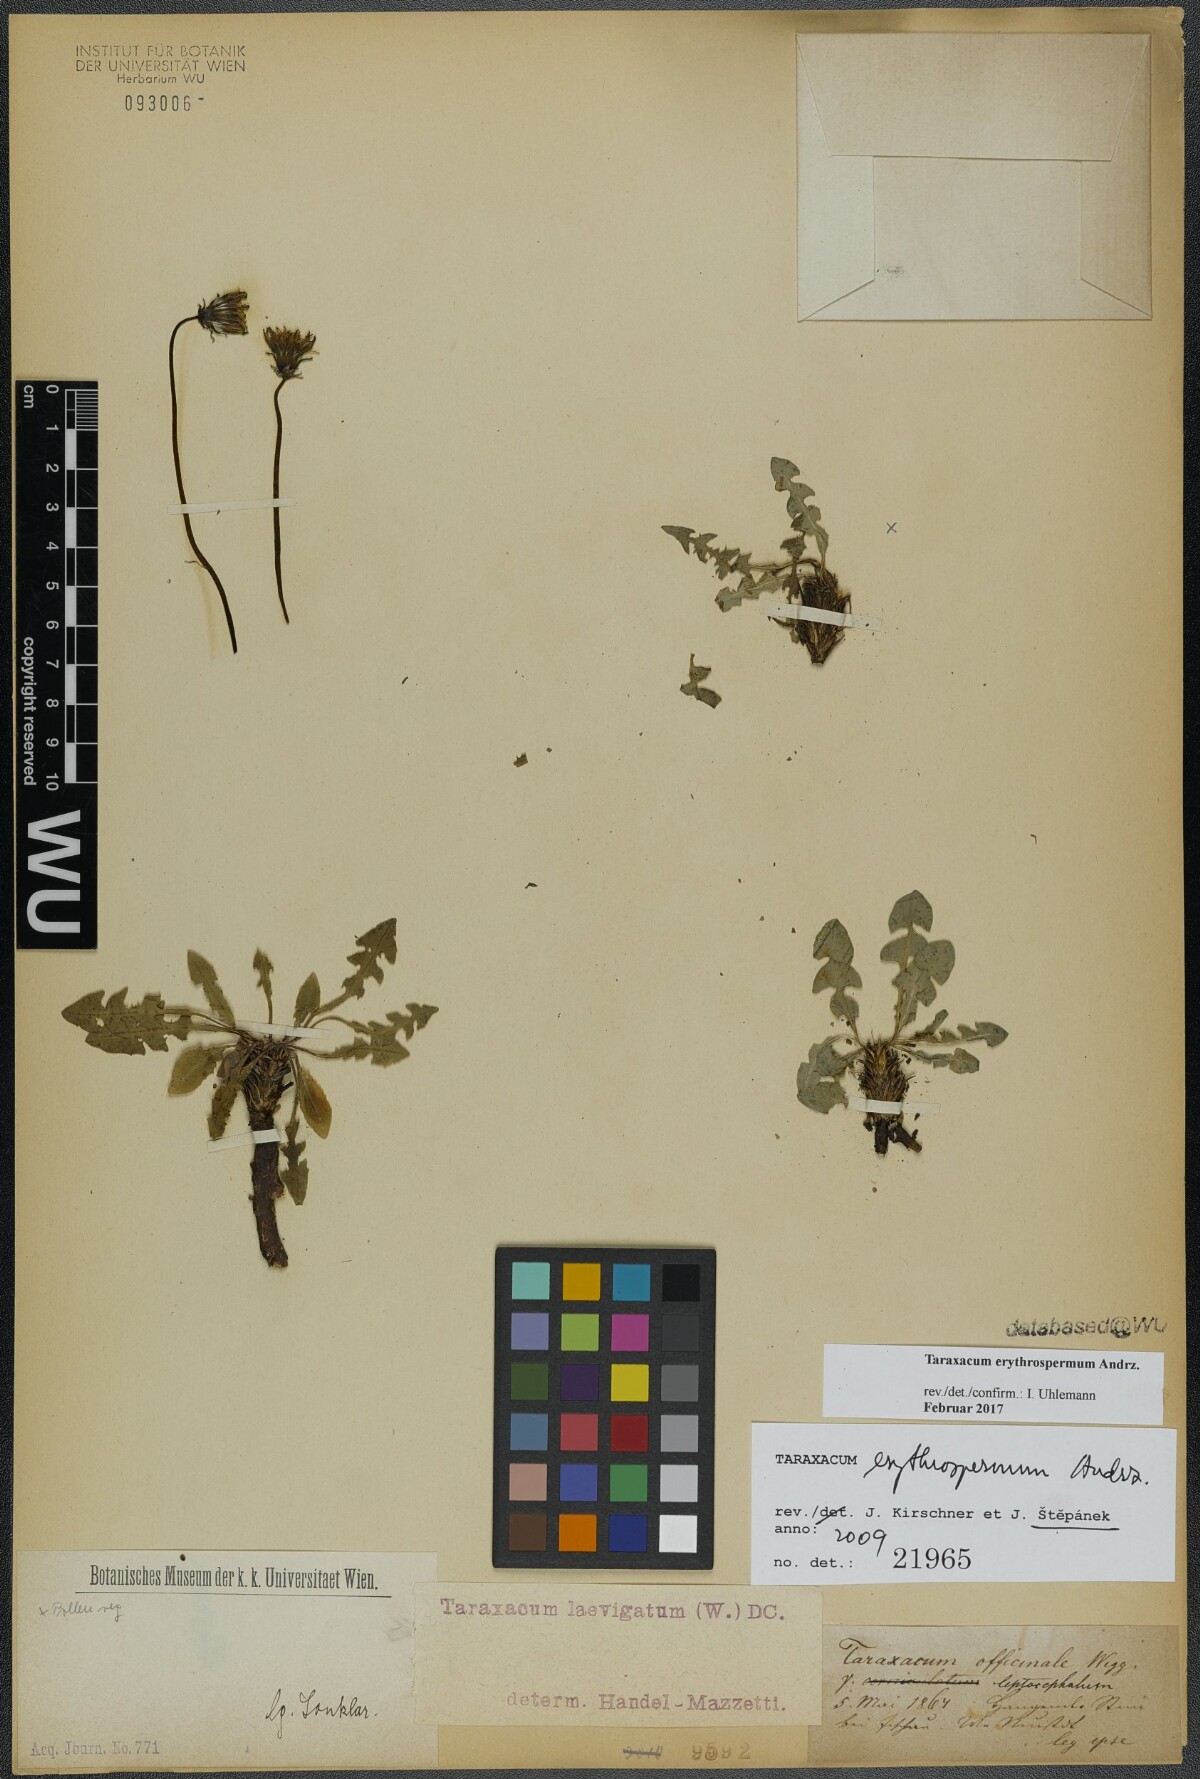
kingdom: Plantae
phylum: Tracheophyta
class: Magnoliopsida
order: Asterales
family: Asteraceae
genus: Taraxacum
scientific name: Taraxacum erythrospermum
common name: Rock dandelion
